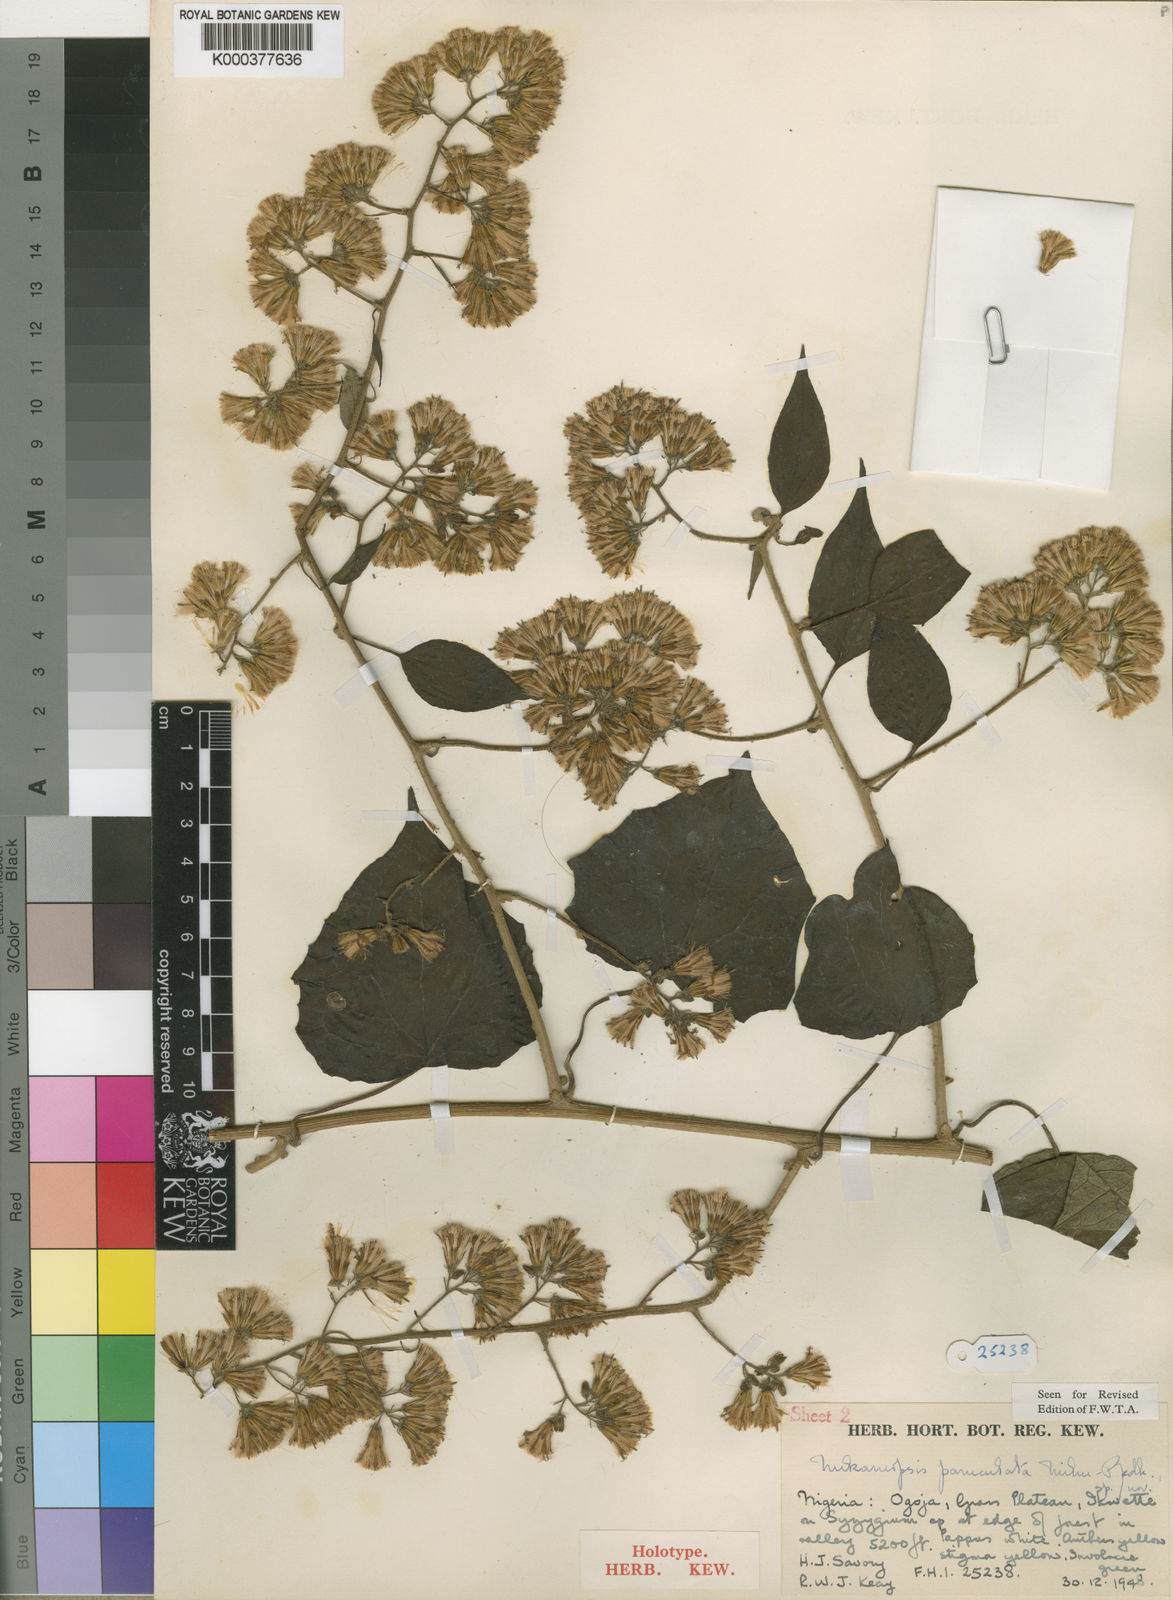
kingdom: Plantae
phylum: Tracheophyta
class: Magnoliopsida
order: Asterales
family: Asteraceae
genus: Mikaniopsis
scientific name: Mikaniopsis paniculata
